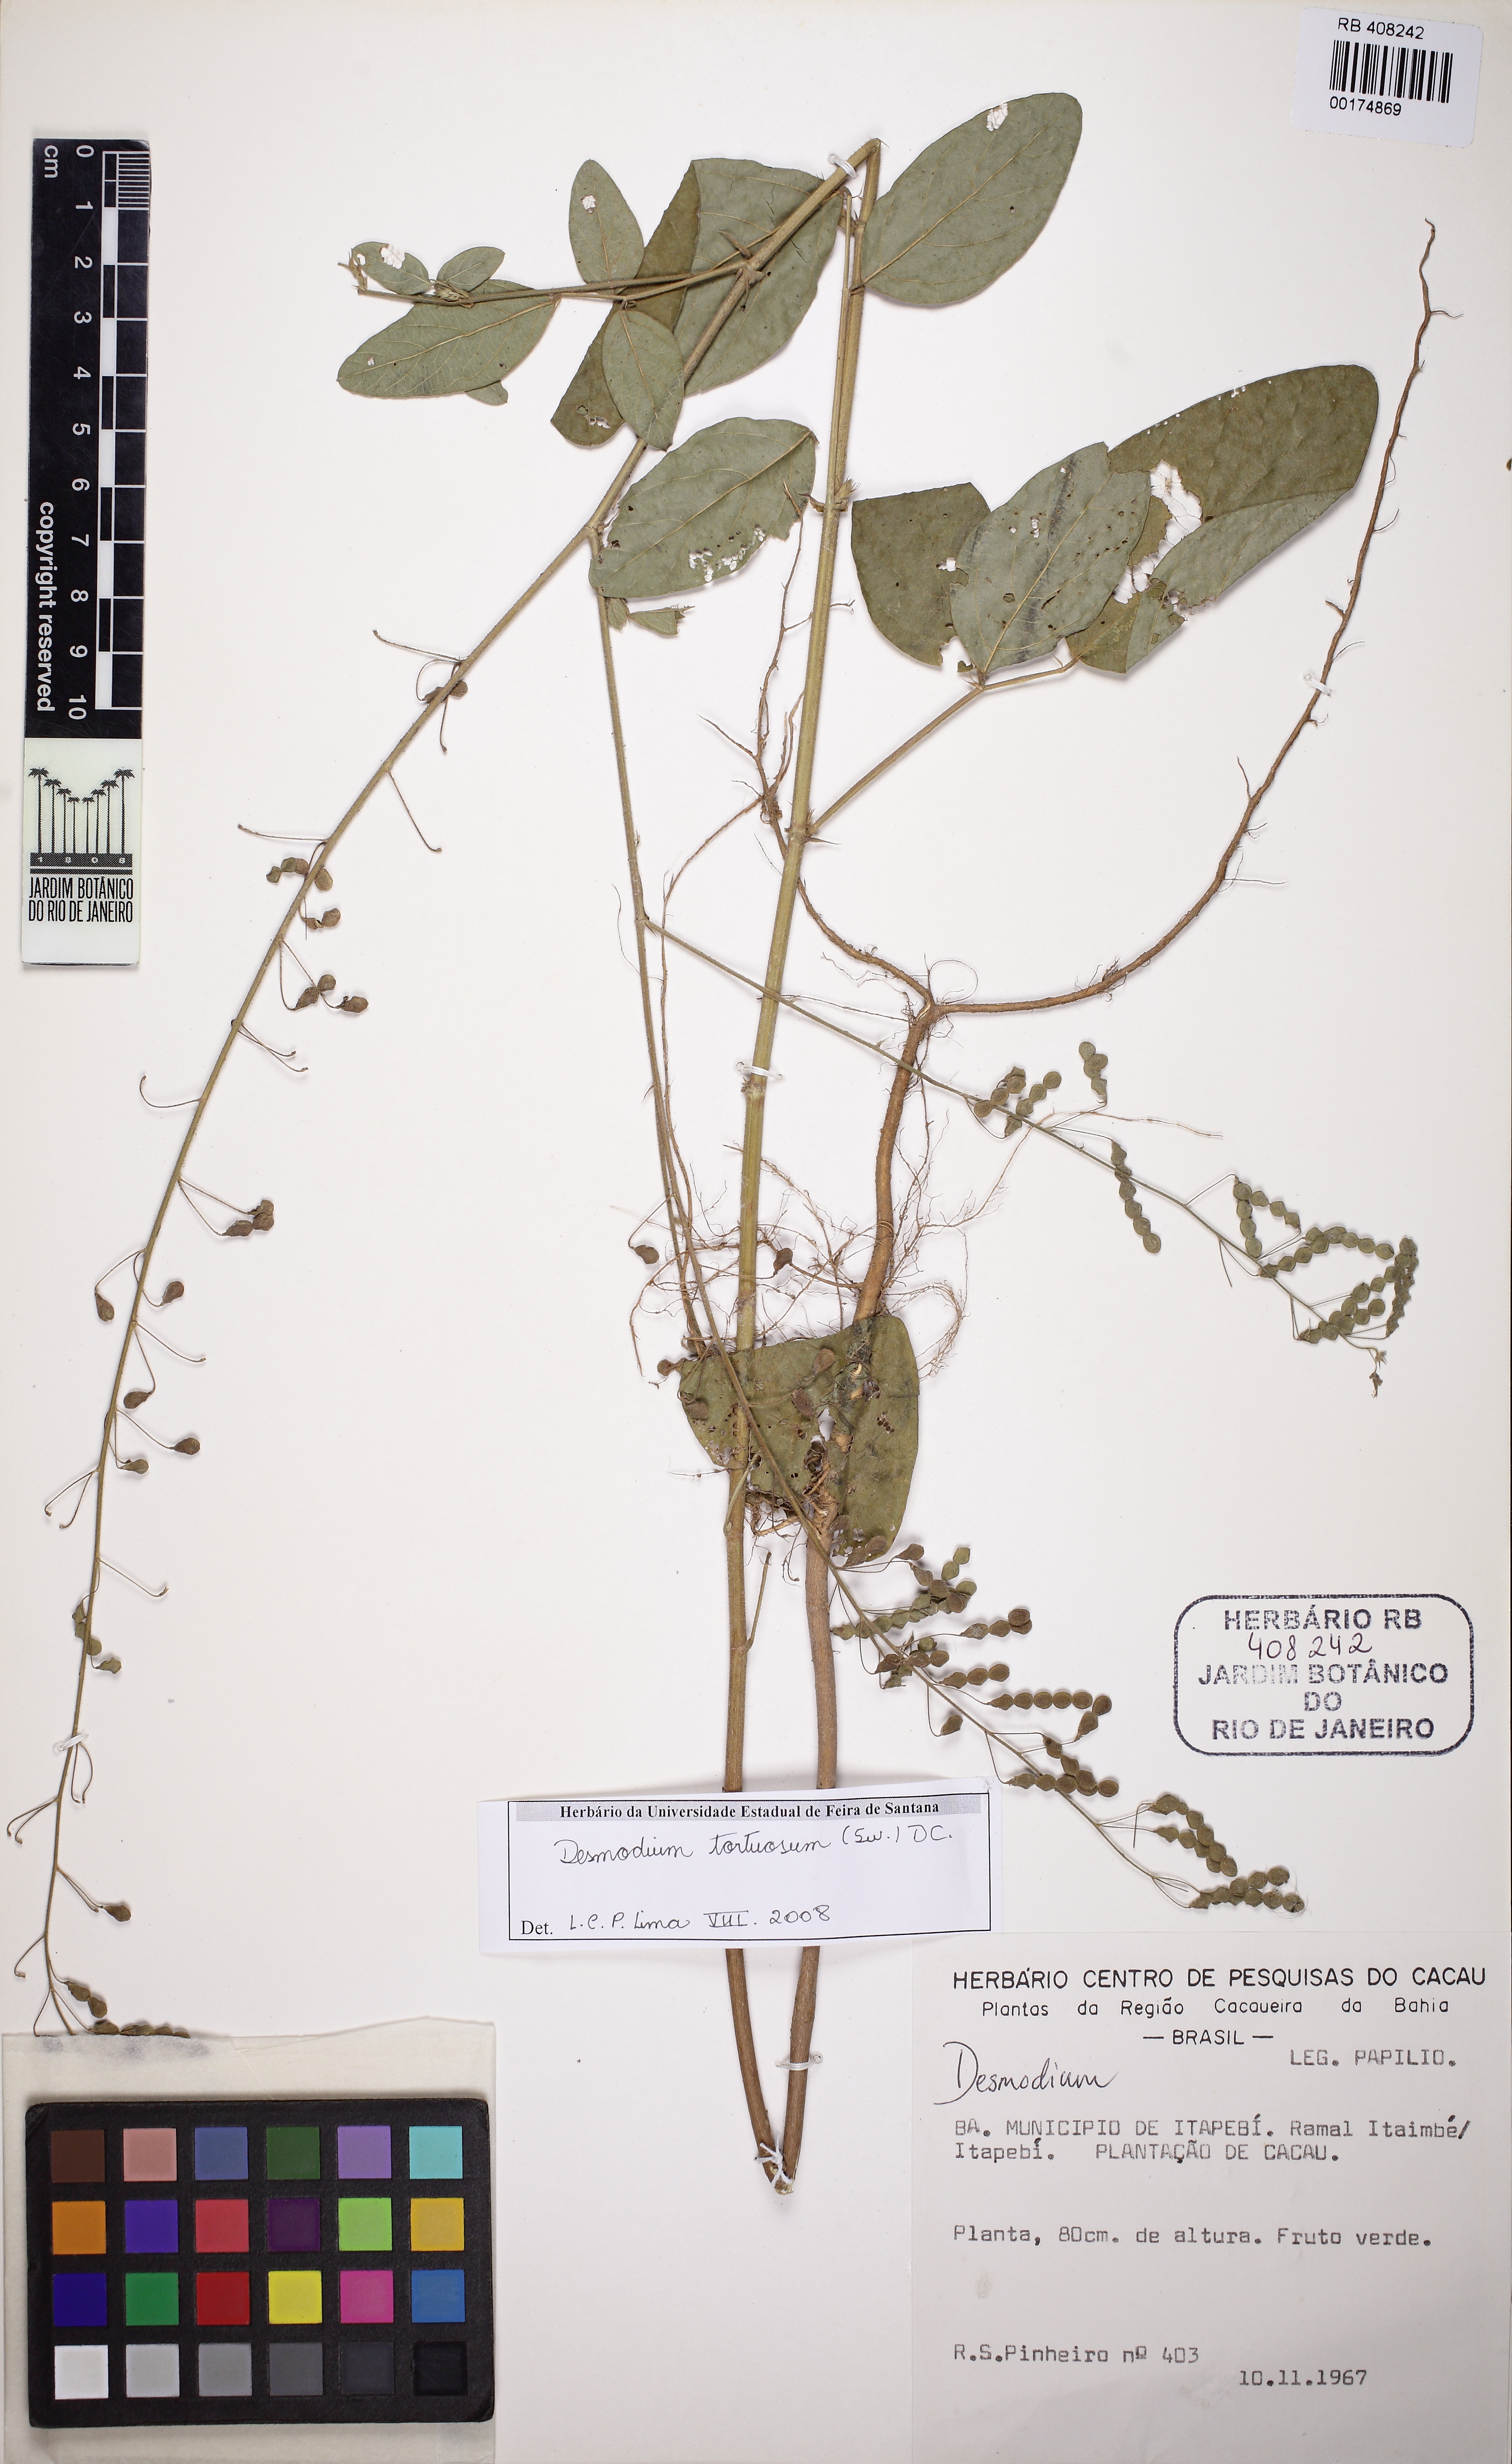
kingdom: Plantae
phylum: Tracheophyta
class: Magnoliopsida
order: Fabales
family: Fabaceae
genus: Desmodium
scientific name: Desmodium tortuosum
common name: Dixie ticktrefoil
